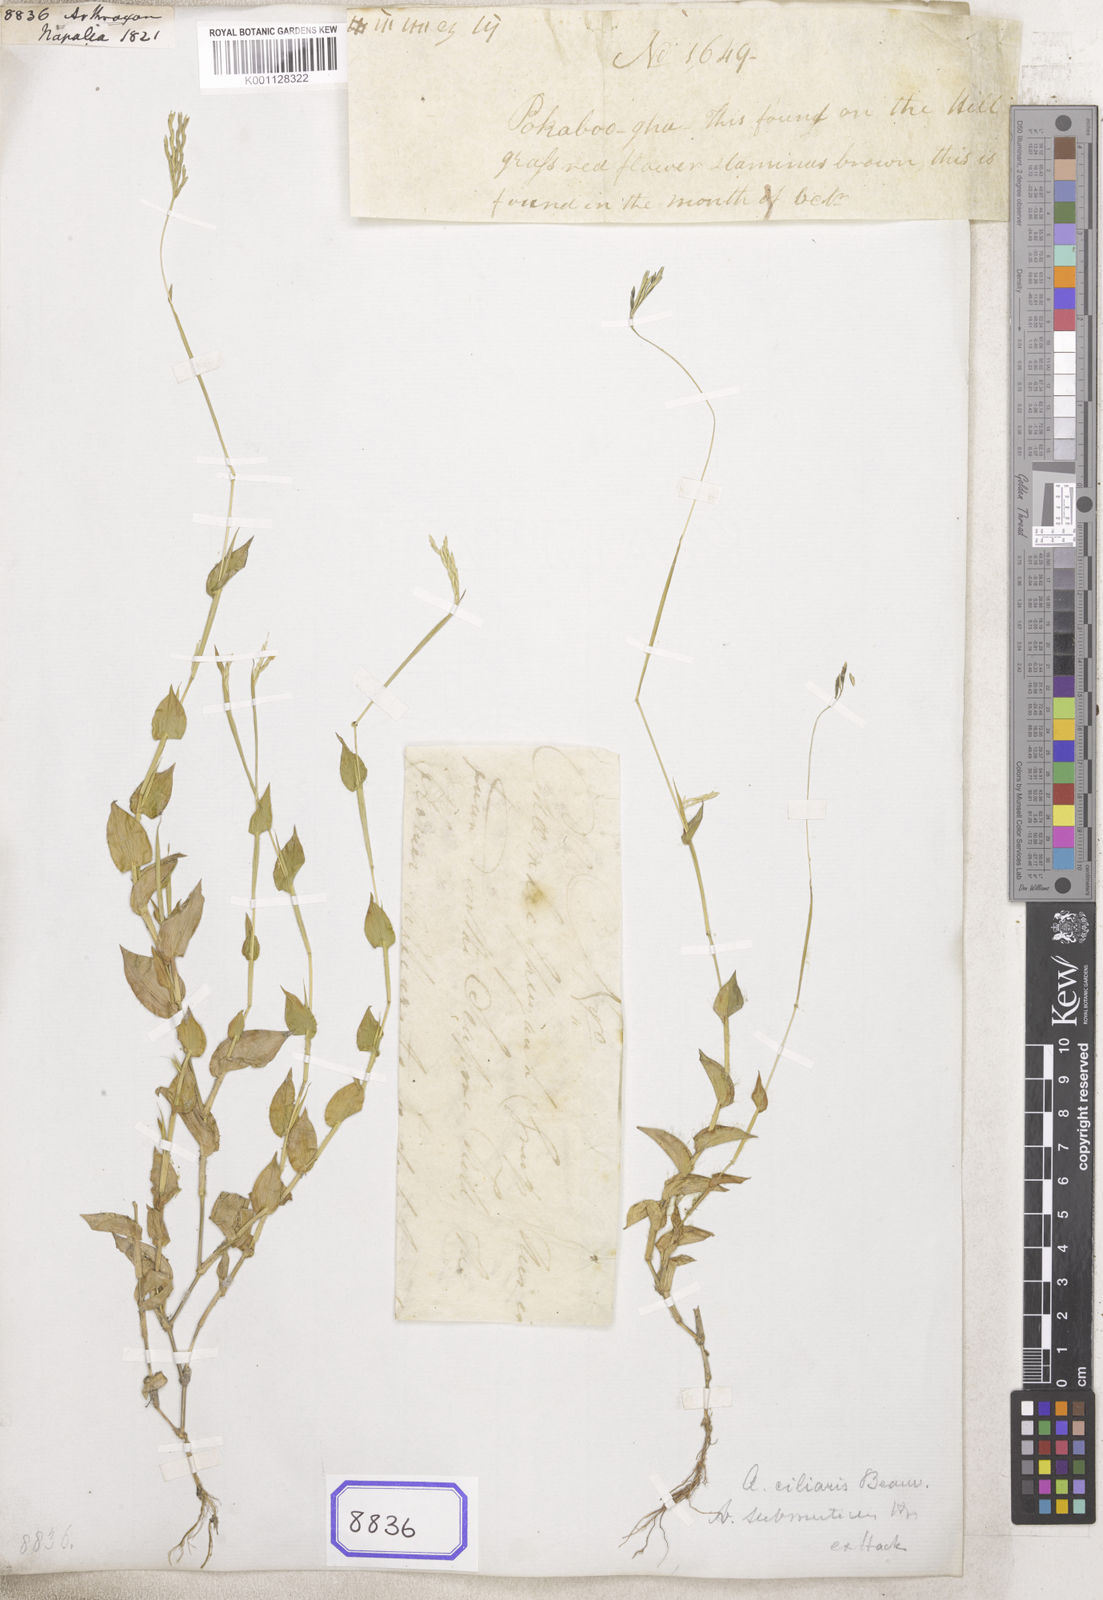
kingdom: Plantae
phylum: Tracheophyta
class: Liliopsida
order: Poales
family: Poaceae
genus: Arthraxon
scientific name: Arthraxon
